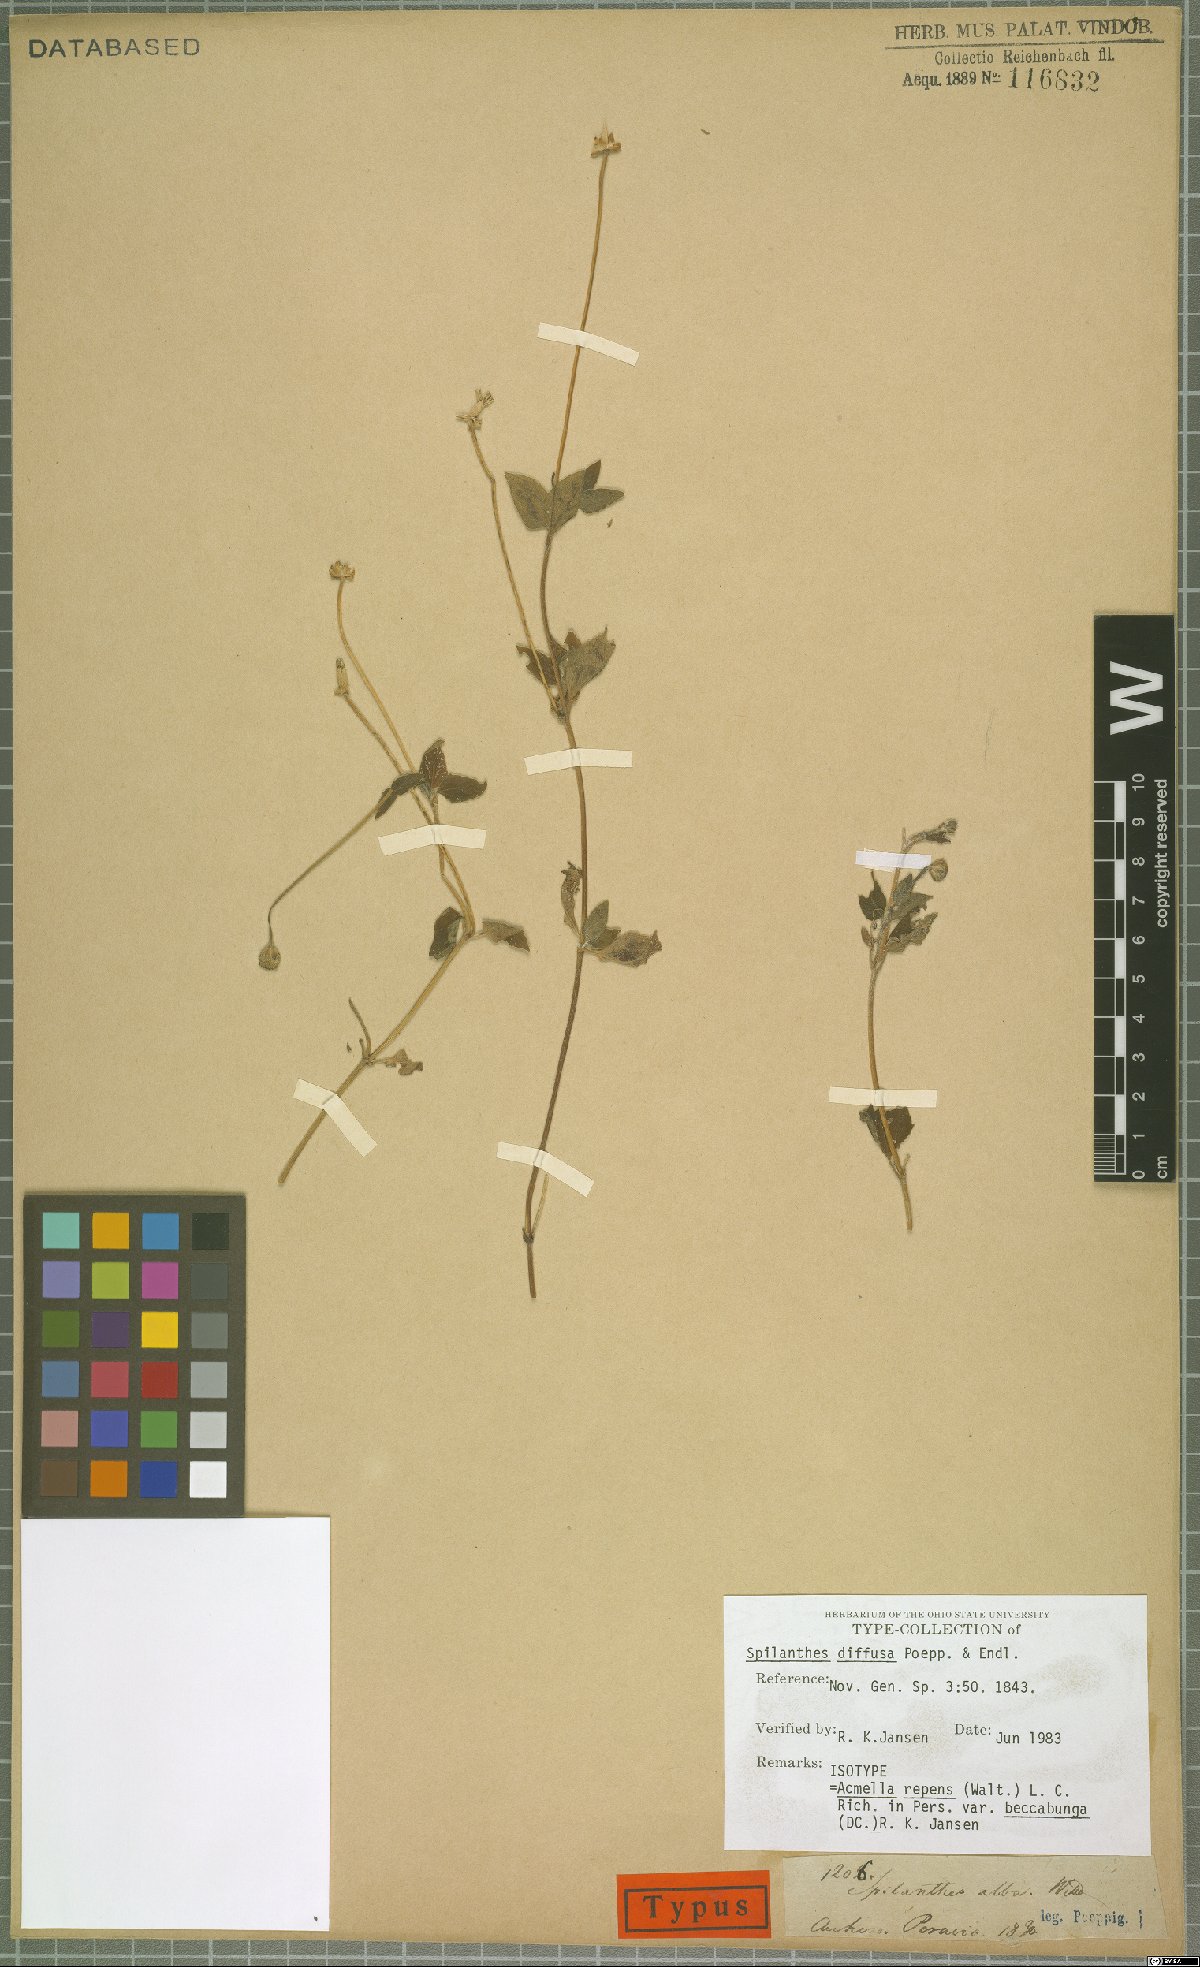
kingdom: Plantae
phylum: Tracheophyta
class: Magnoliopsida
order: Asterales
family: Asteraceae
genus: Acmella
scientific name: Acmella repens
